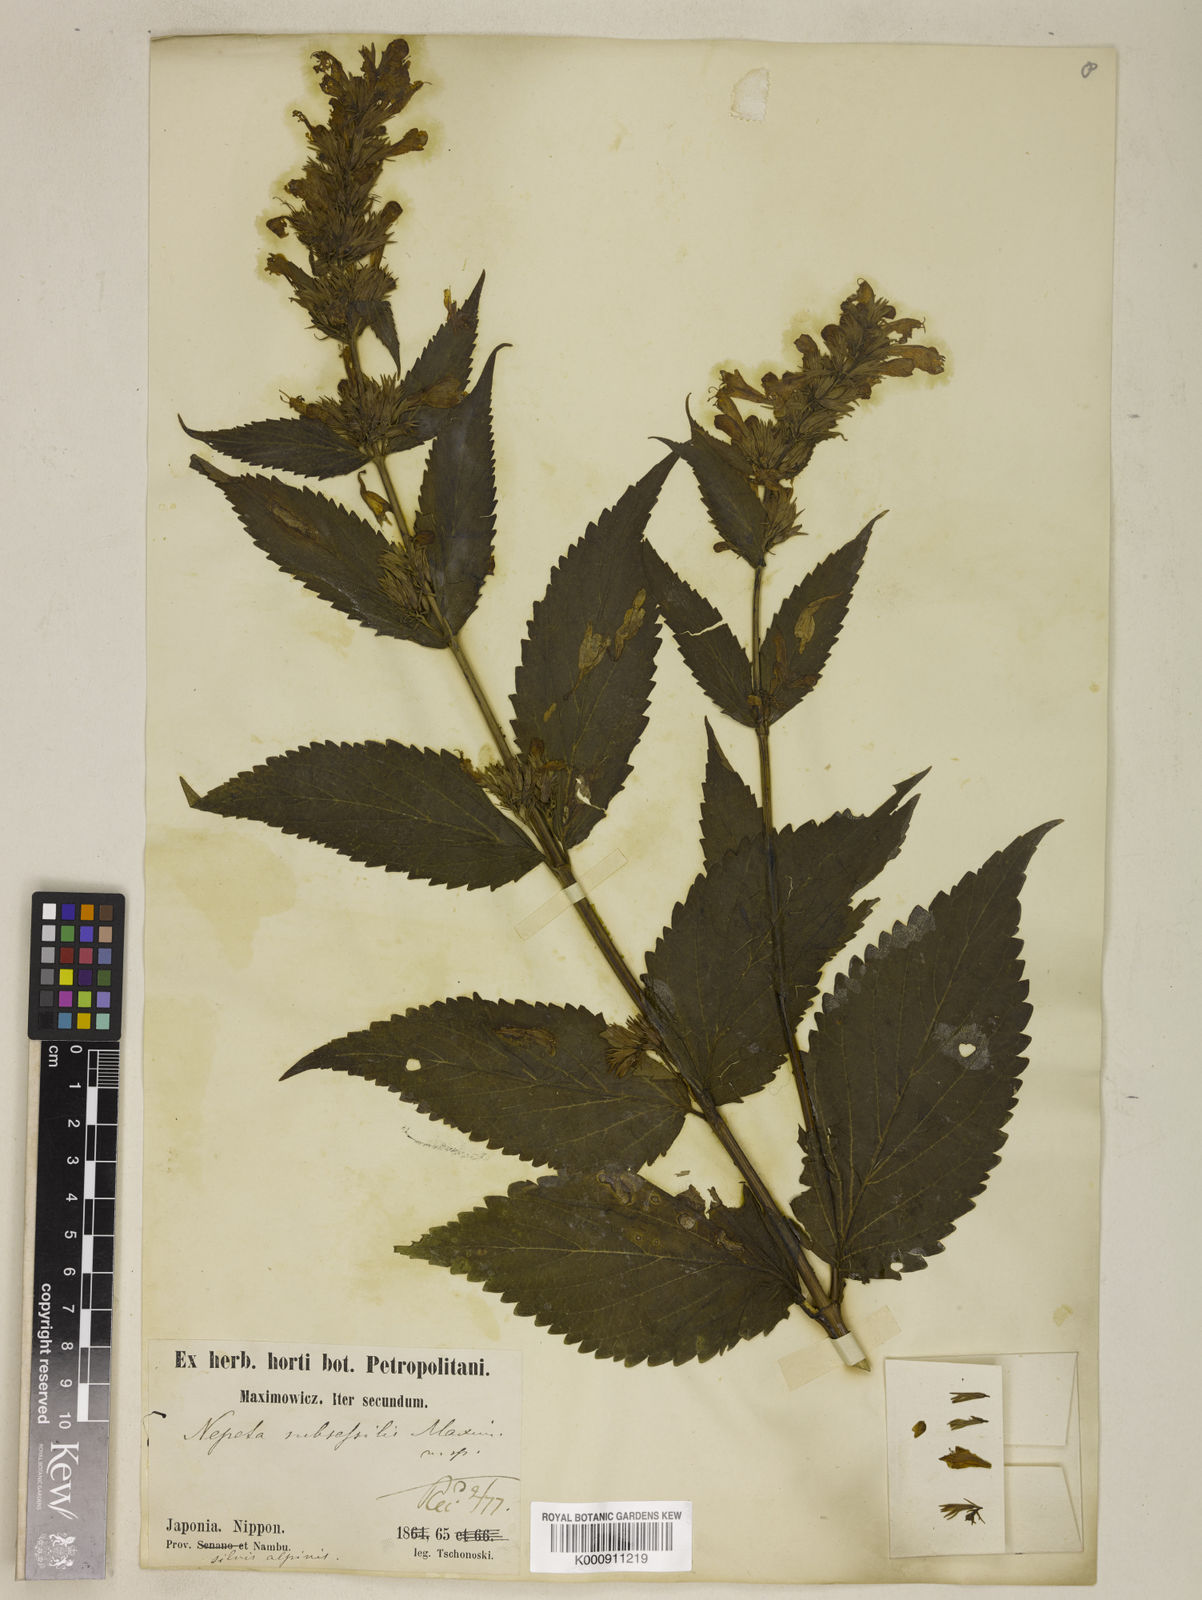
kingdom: Plantae
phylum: Tracheophyta
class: Magnoliopsida
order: Lamiales
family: Lamiaceae
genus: Nepeta
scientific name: Nepeta subsessilis
